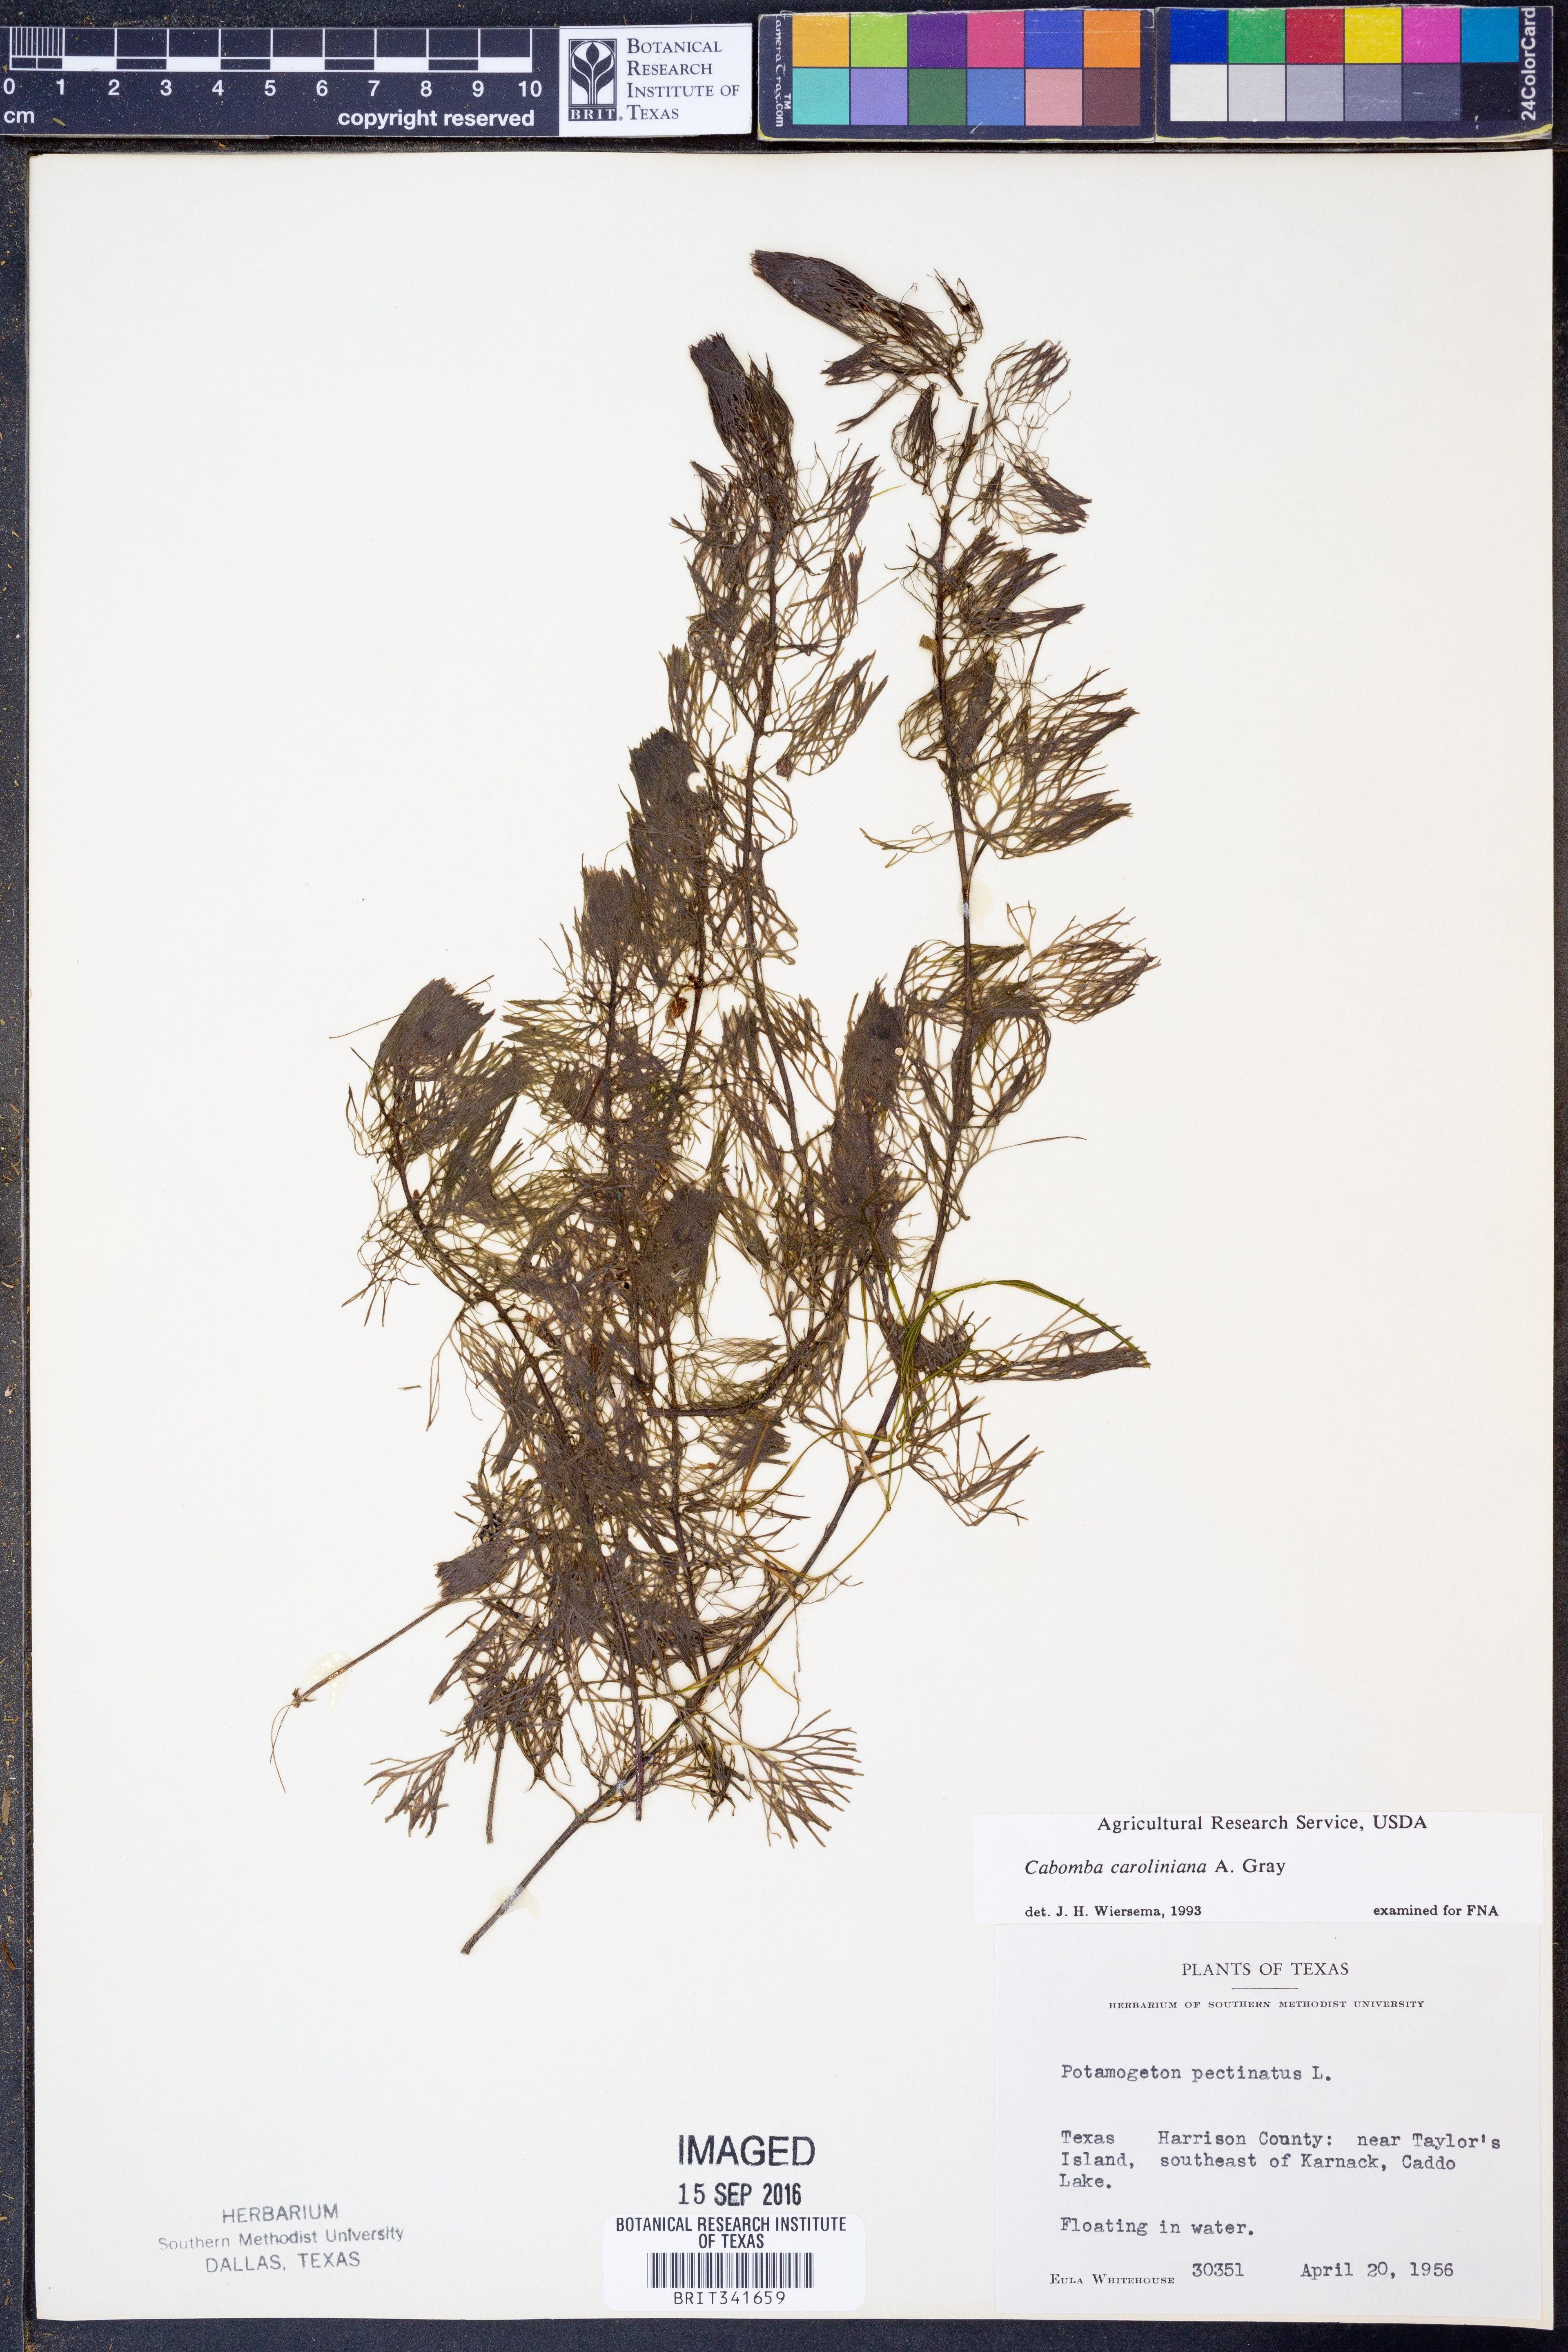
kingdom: Plantae
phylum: Tracheophyta
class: Magnoliopsida
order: Nymphaeales
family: Cabombaceae
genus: Cabomba
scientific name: Cabomba caroliniana
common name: Fanwort
